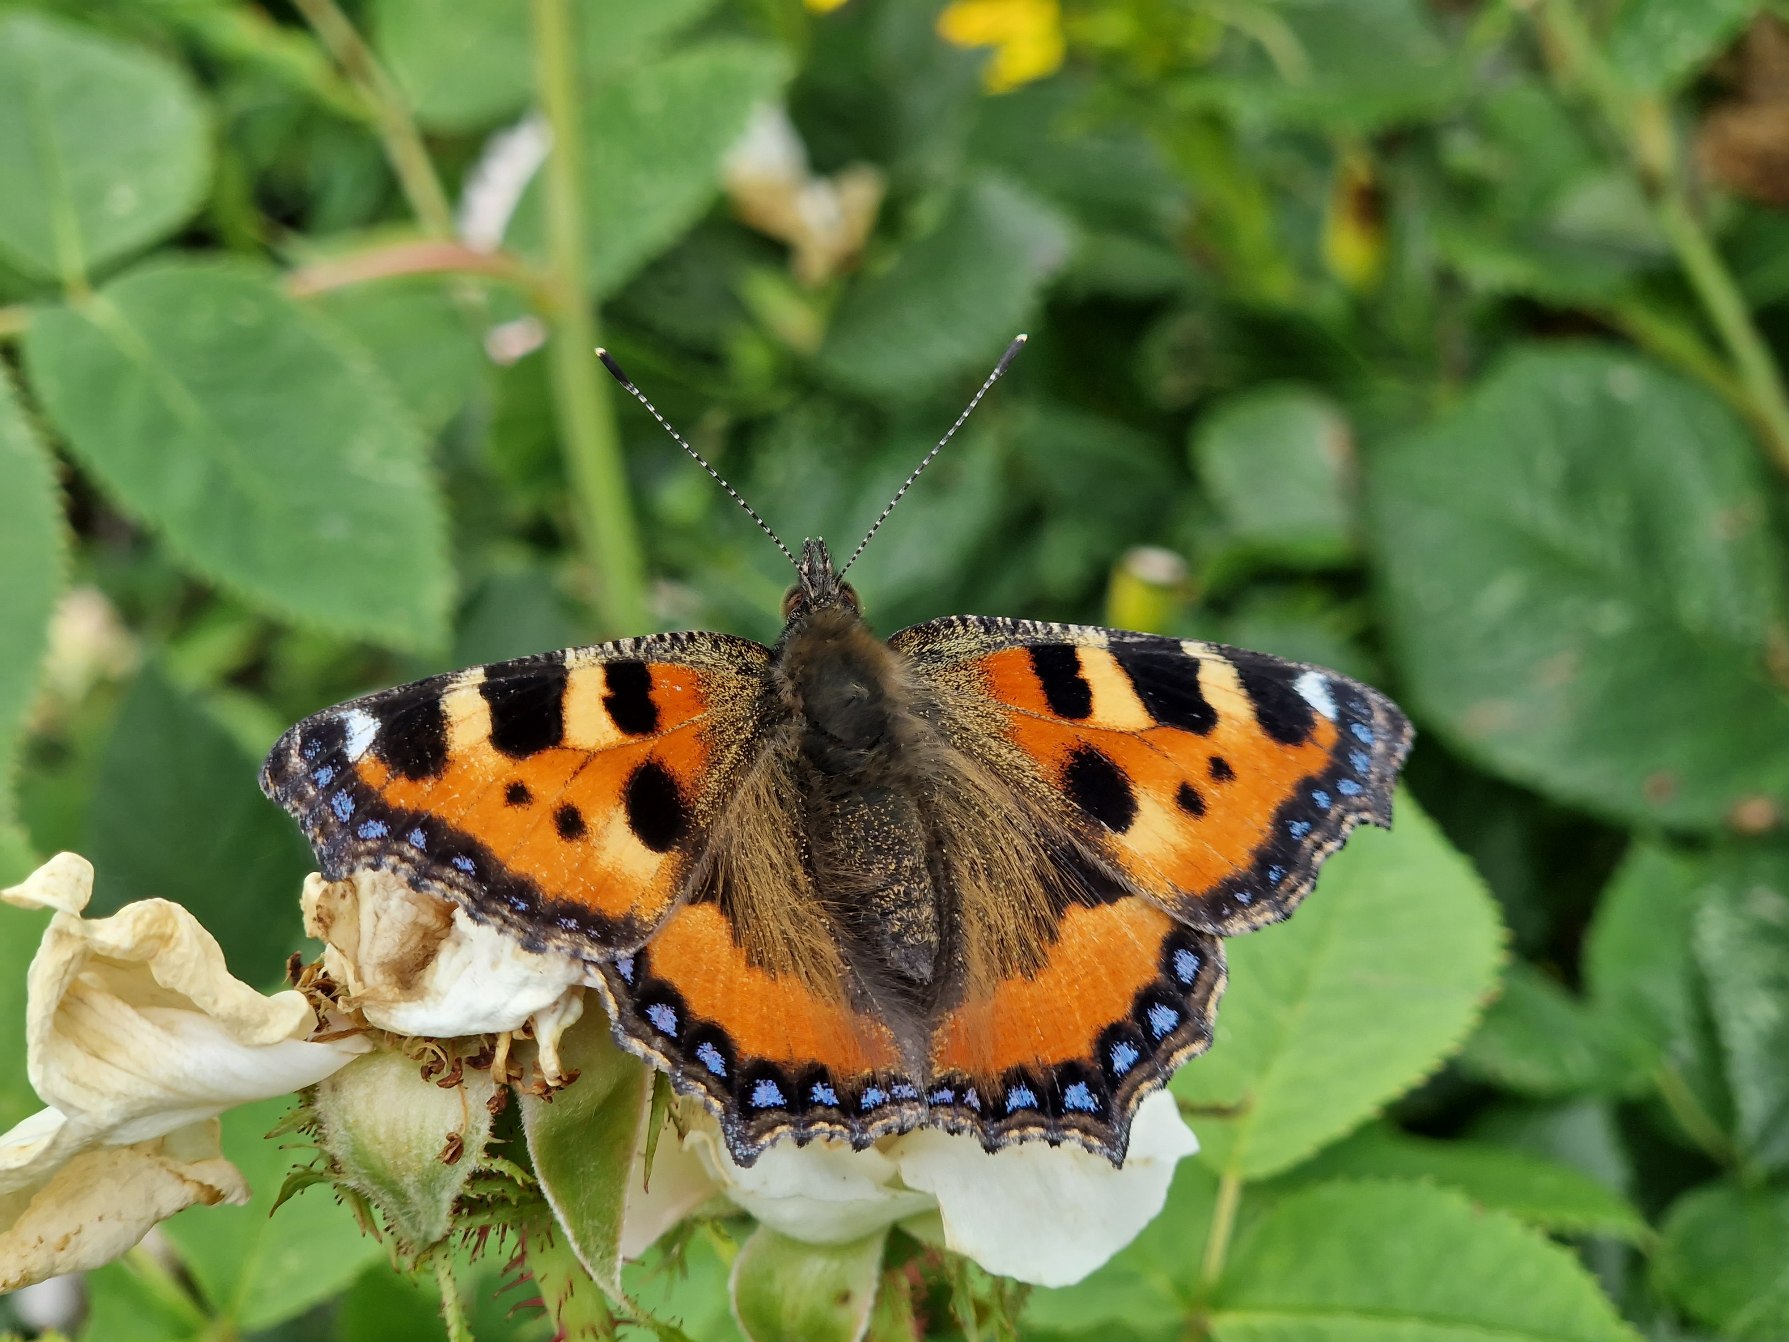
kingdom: Animalia
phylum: Arthropoda
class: Insecta
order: Lepidoptera
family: Nymphalidae
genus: Aglais
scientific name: Aglais urticae
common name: Nældens takvinge
